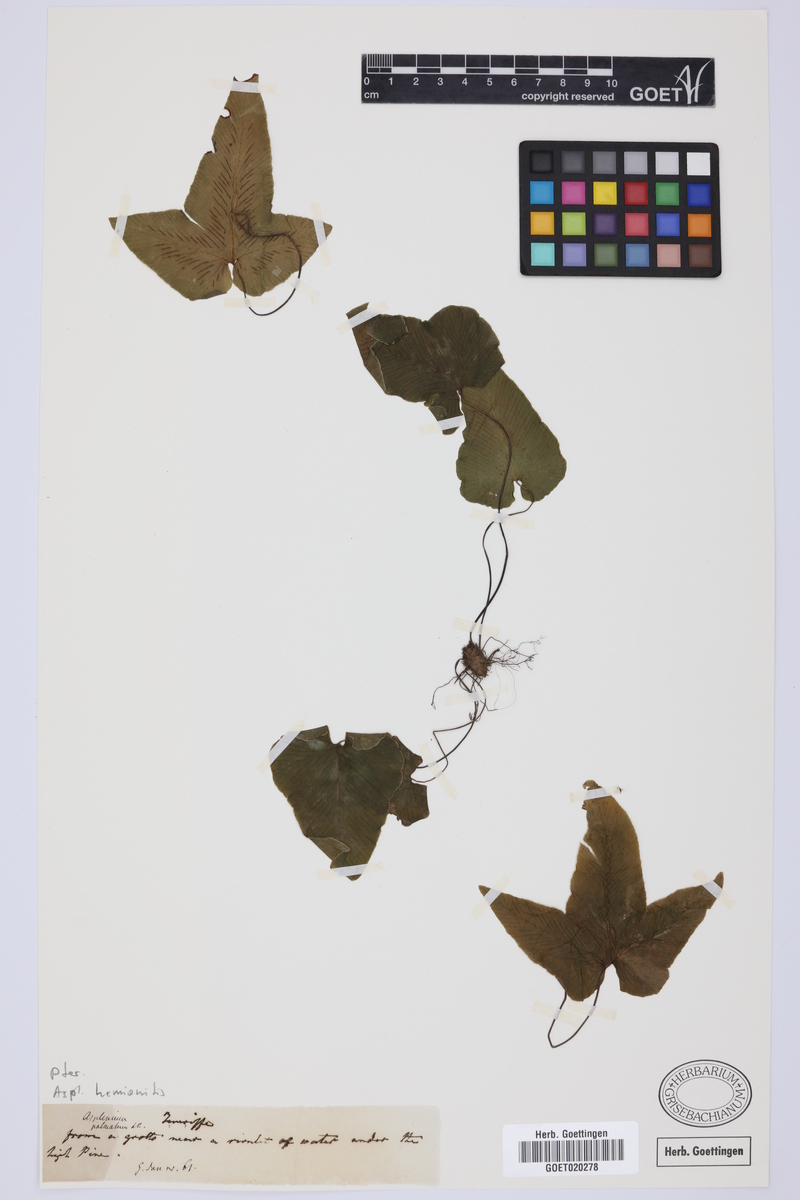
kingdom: Plantae
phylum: Tracheophyta
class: Polypodiopsida
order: Polypodiales
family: Aspleniaceae
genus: Asplenium
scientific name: Asplenium hemionitis
